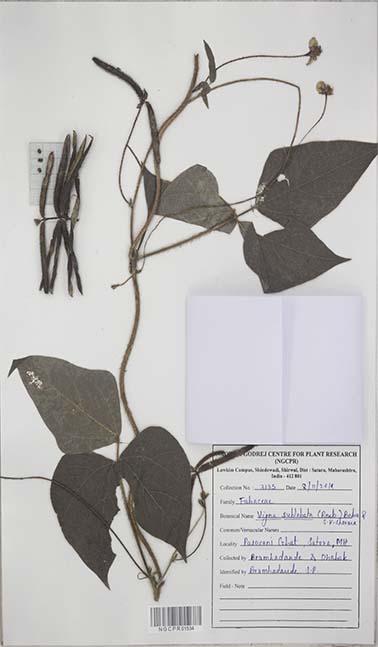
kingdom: Plantae
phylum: Tracheophyta
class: Magnoliopsida
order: Fabales
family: Fabaceae
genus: Vigna
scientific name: Vigna radiata
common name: Mung-bean
